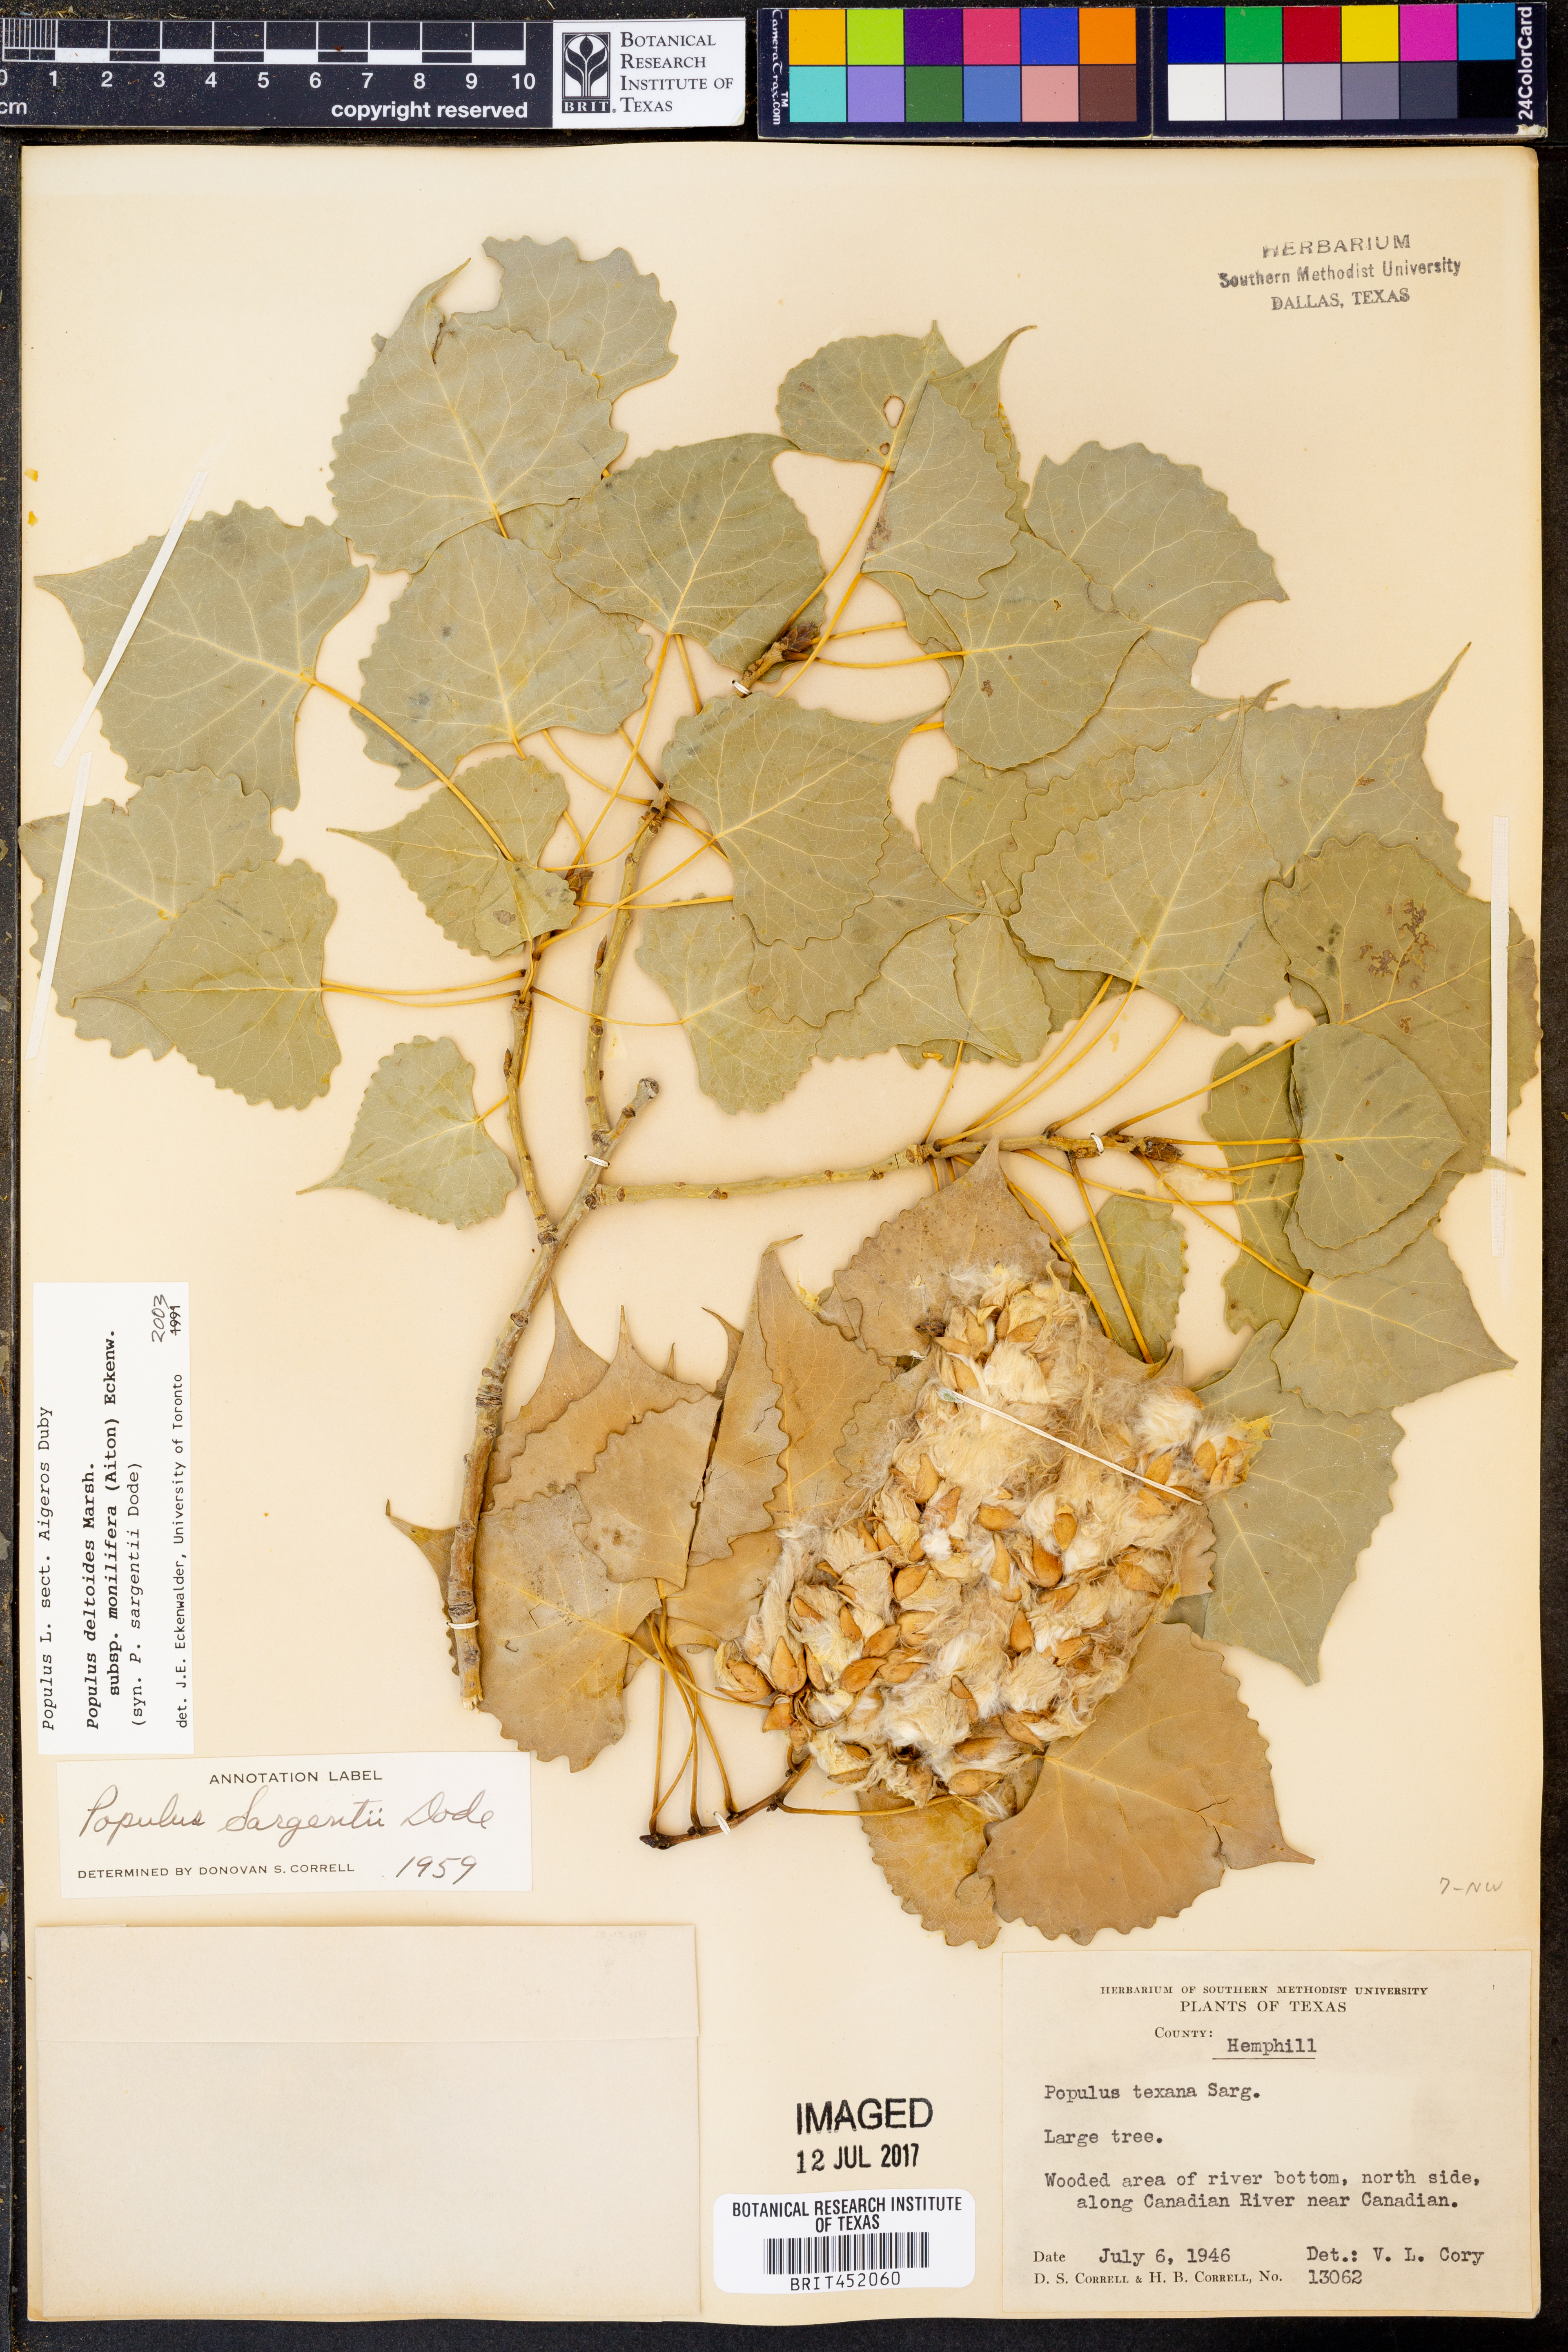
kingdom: Plantae
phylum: Tracheophyta
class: Magnoliopsida
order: Malpighiales
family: Salicaceae
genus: Populus
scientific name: Populus deltoides
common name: Eastern cottonwood
